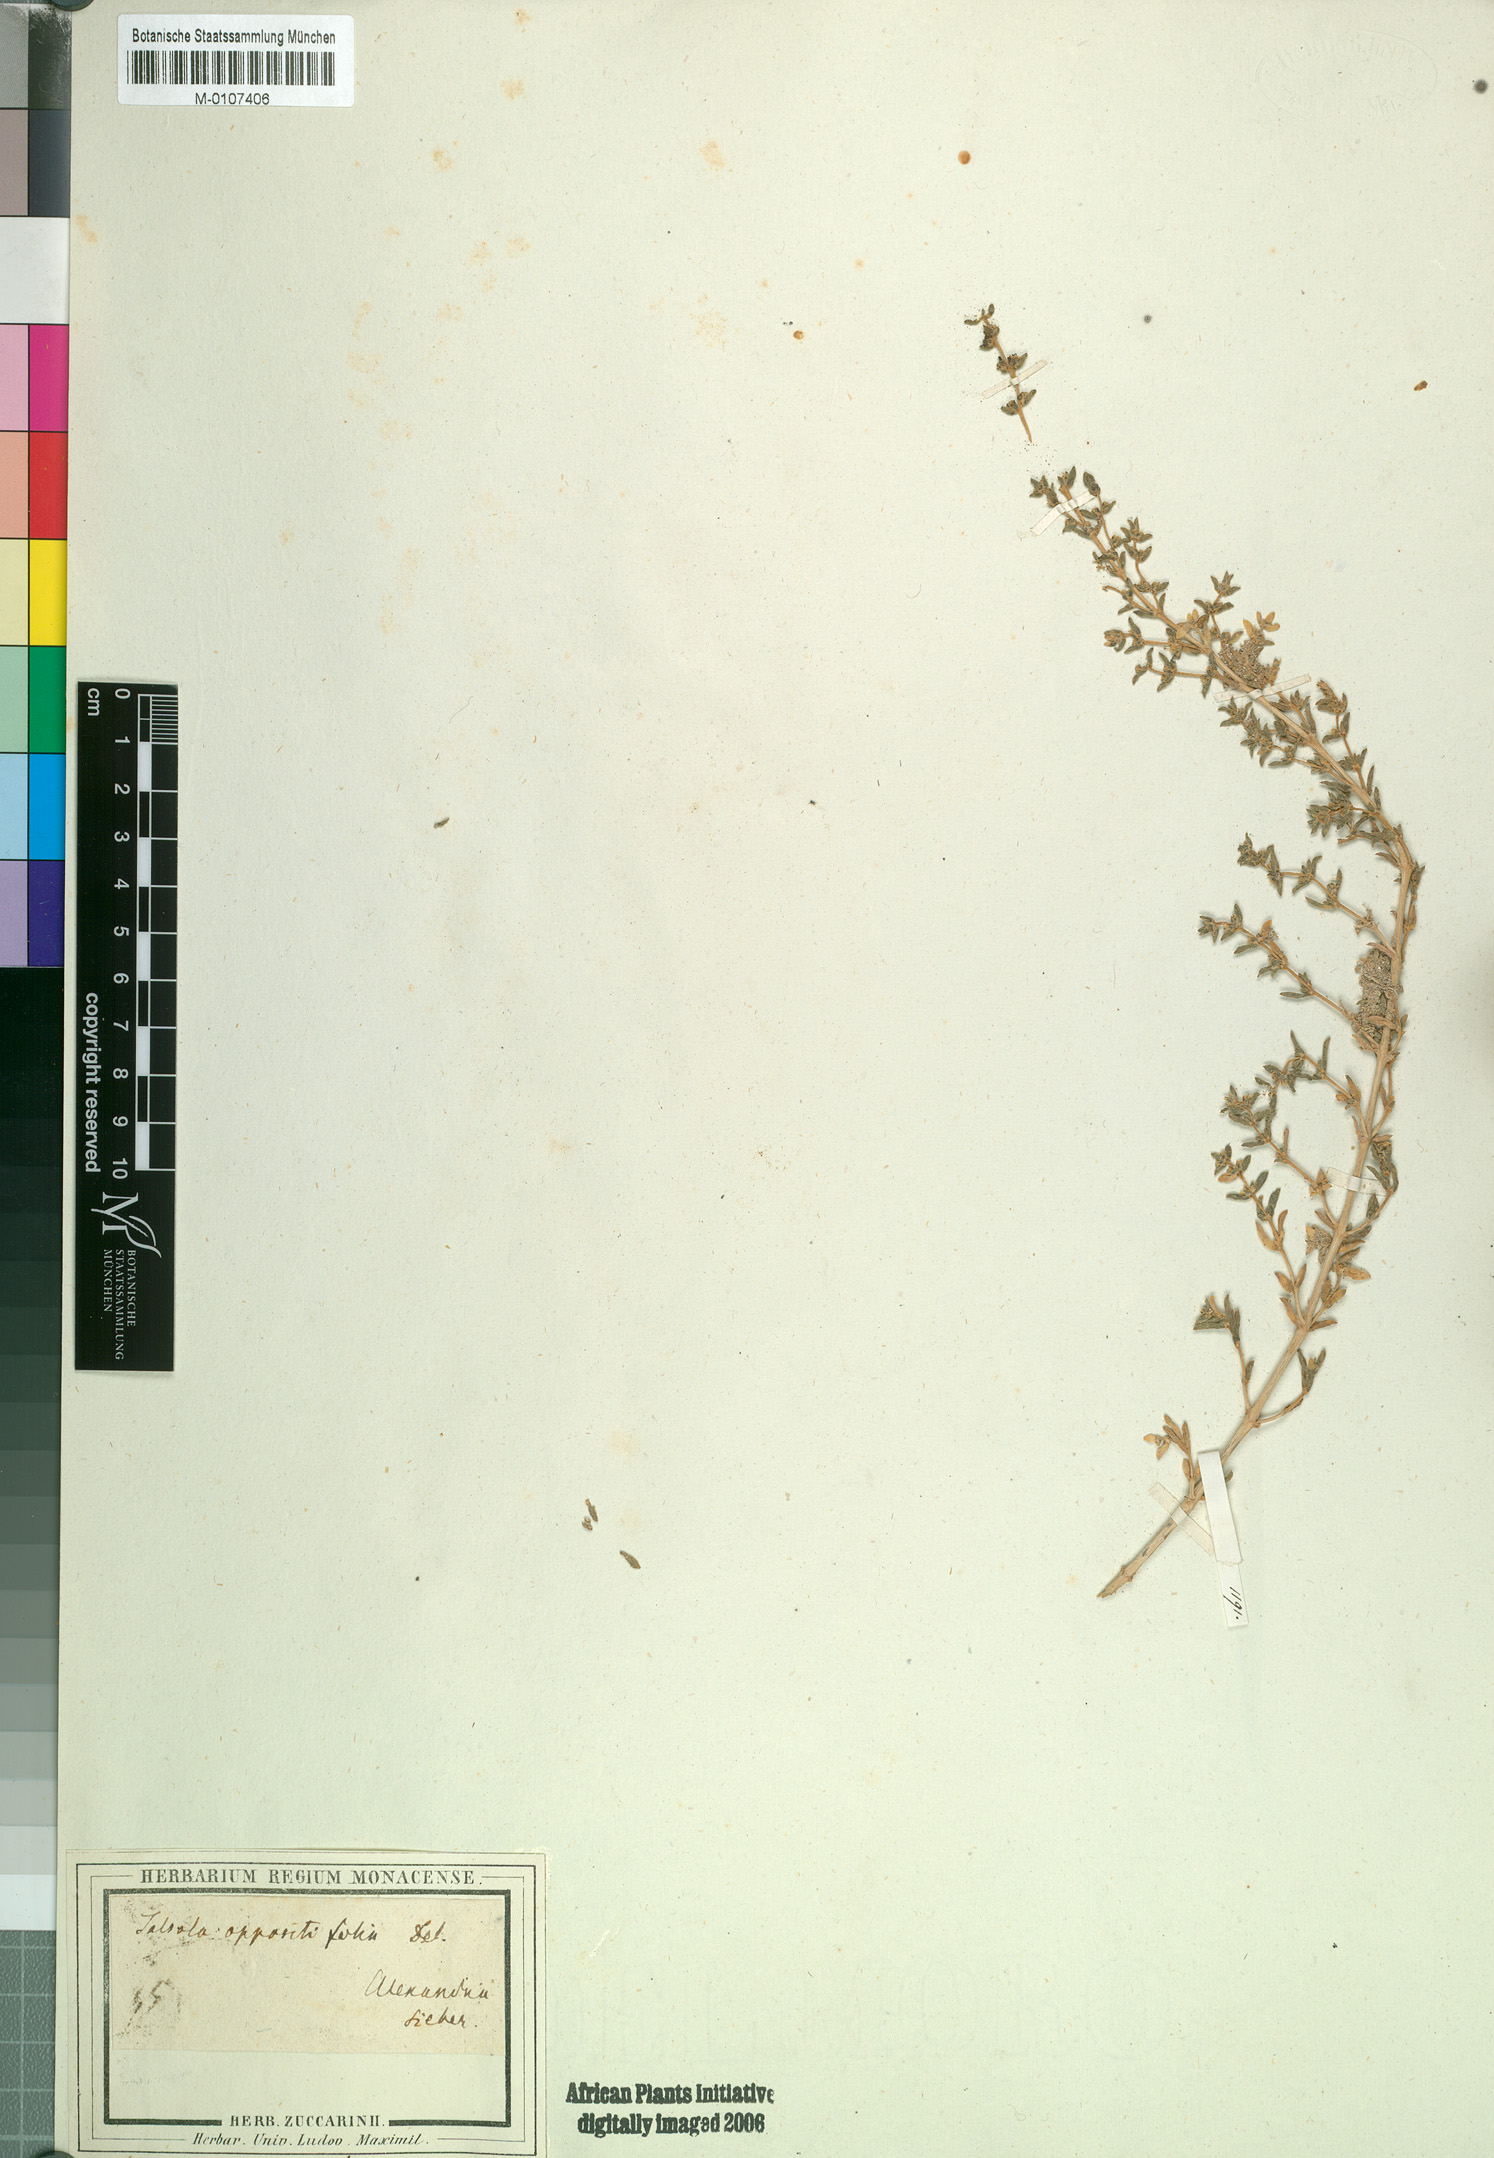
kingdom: Plantae
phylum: Tracheophyta
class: Magnoliopsida
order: Caryophyllales
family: Amaranthaceae
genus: Soda
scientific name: Soda longifolia
